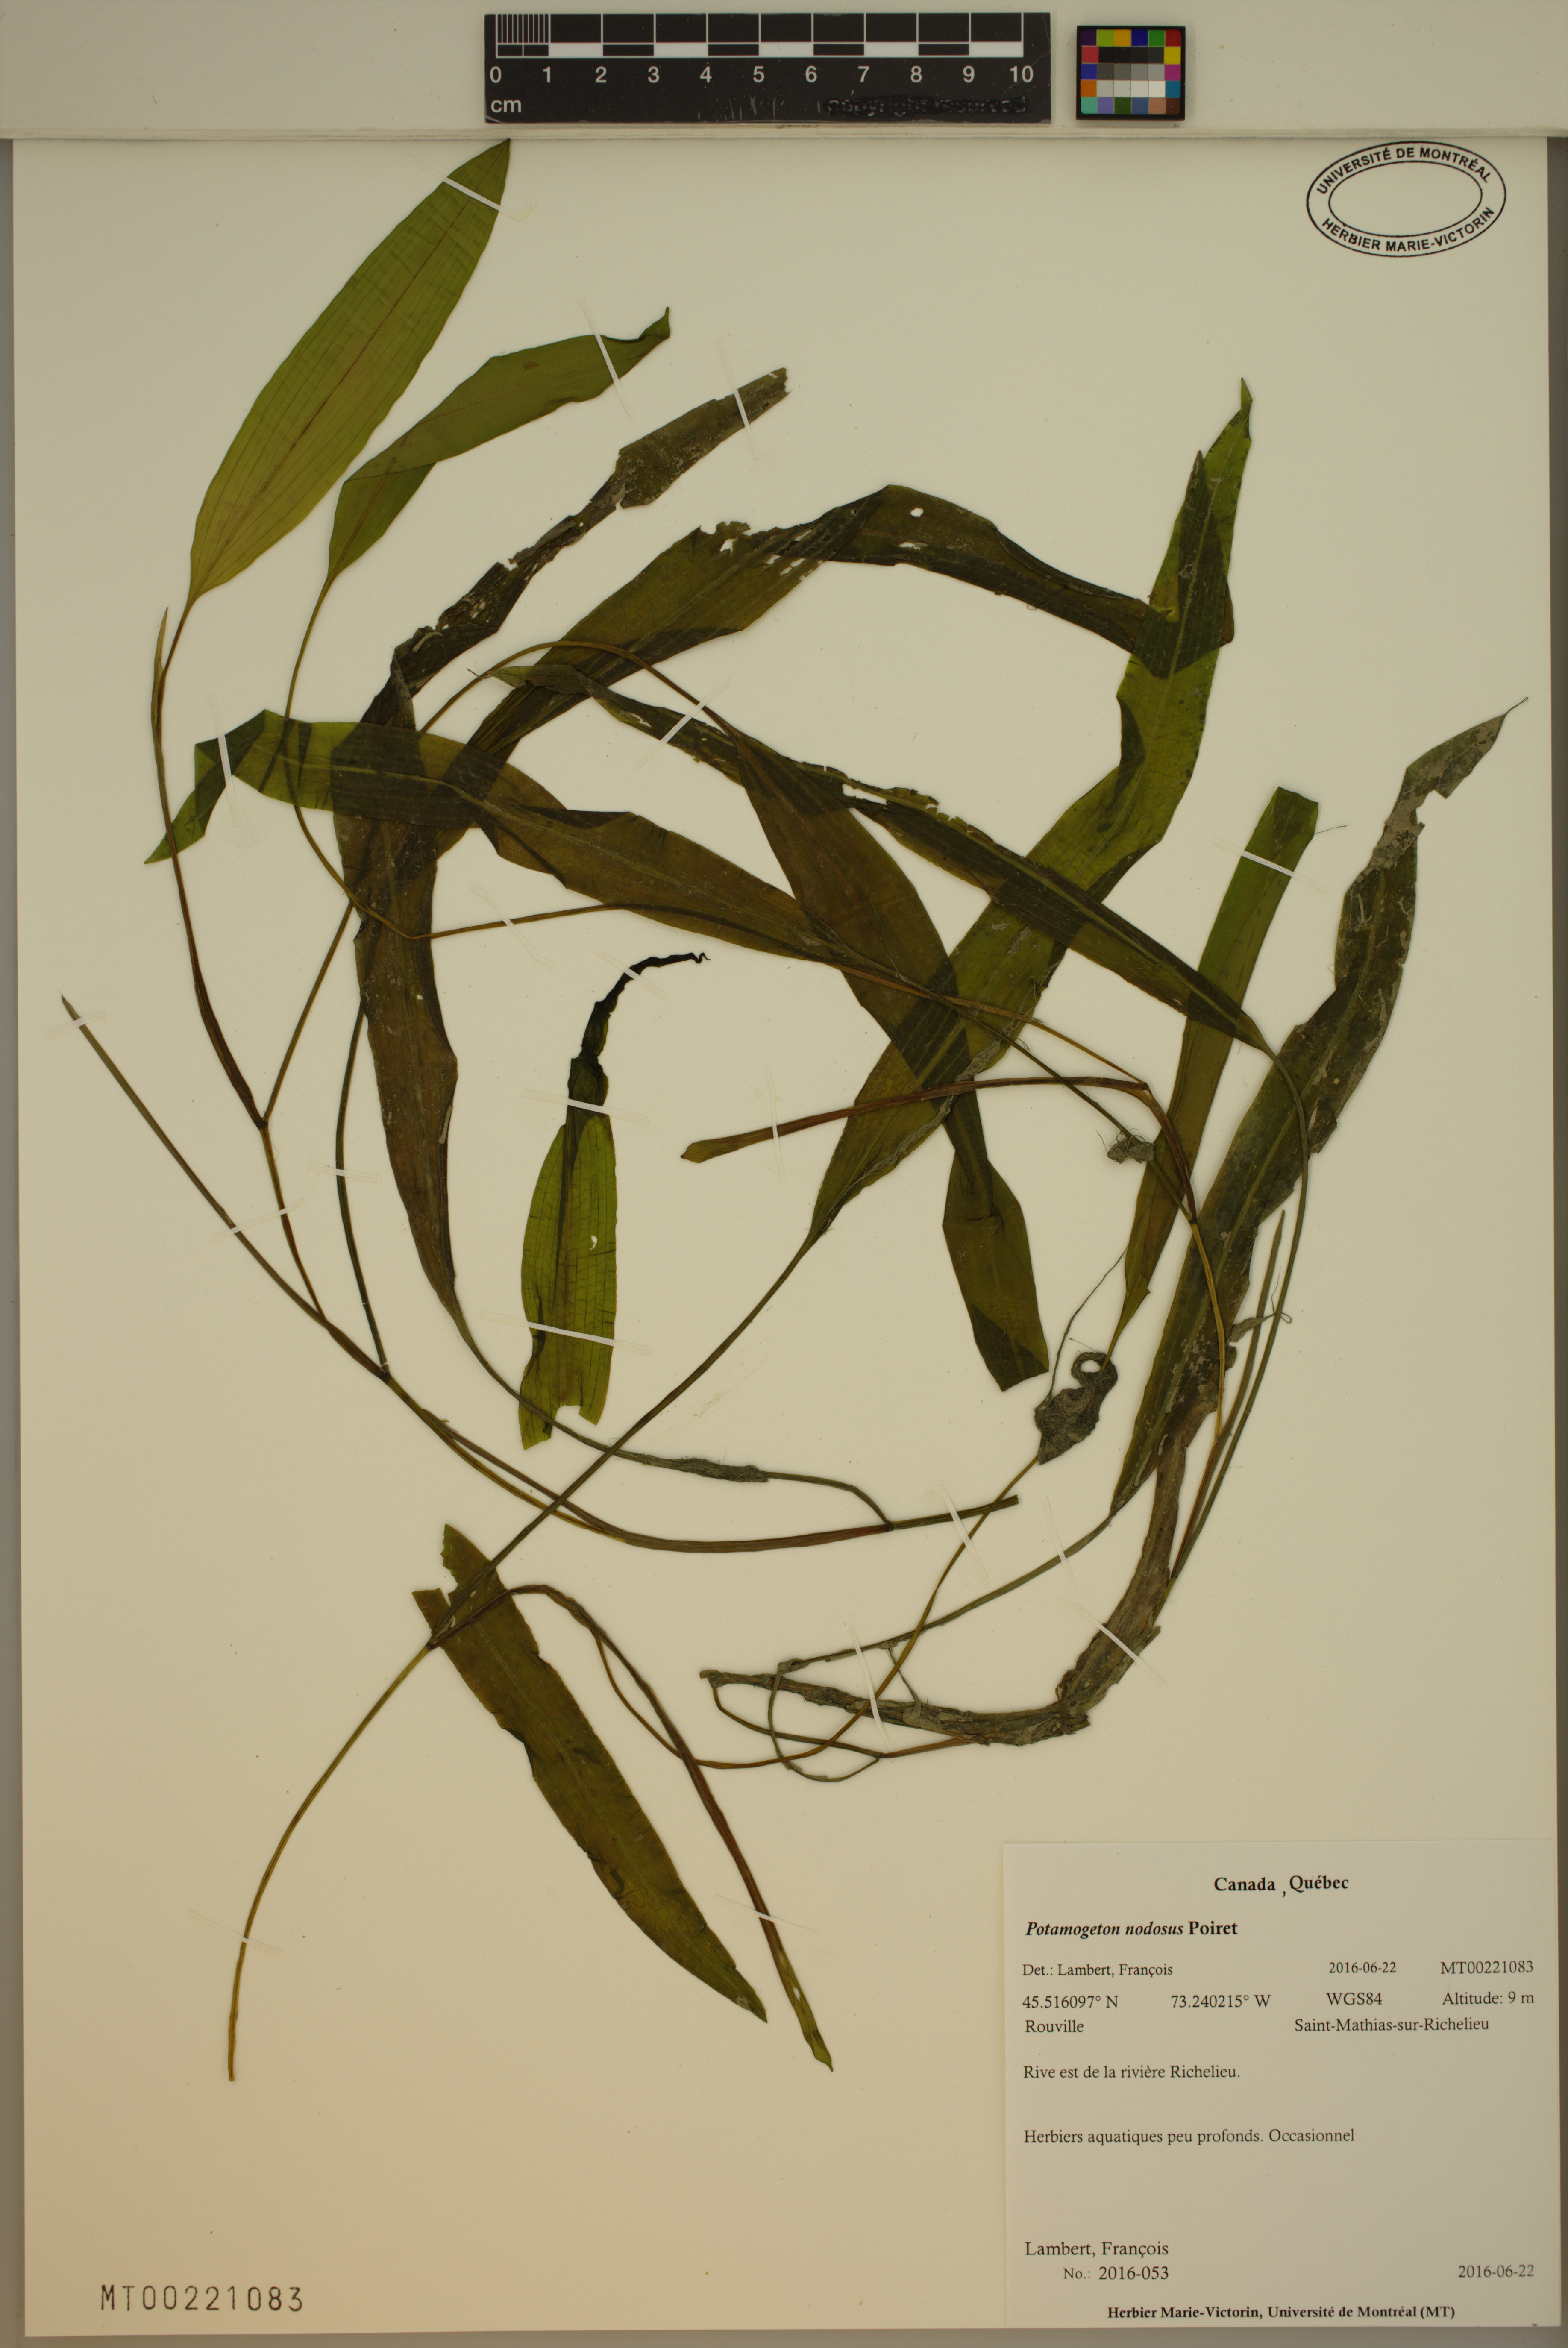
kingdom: Plantae
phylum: Tracheophyta
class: Liliopsida
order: Alismatales
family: Potamogetonaceae
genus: Potamogeton
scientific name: Potamogeton nodosus
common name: Loddon pondweed
